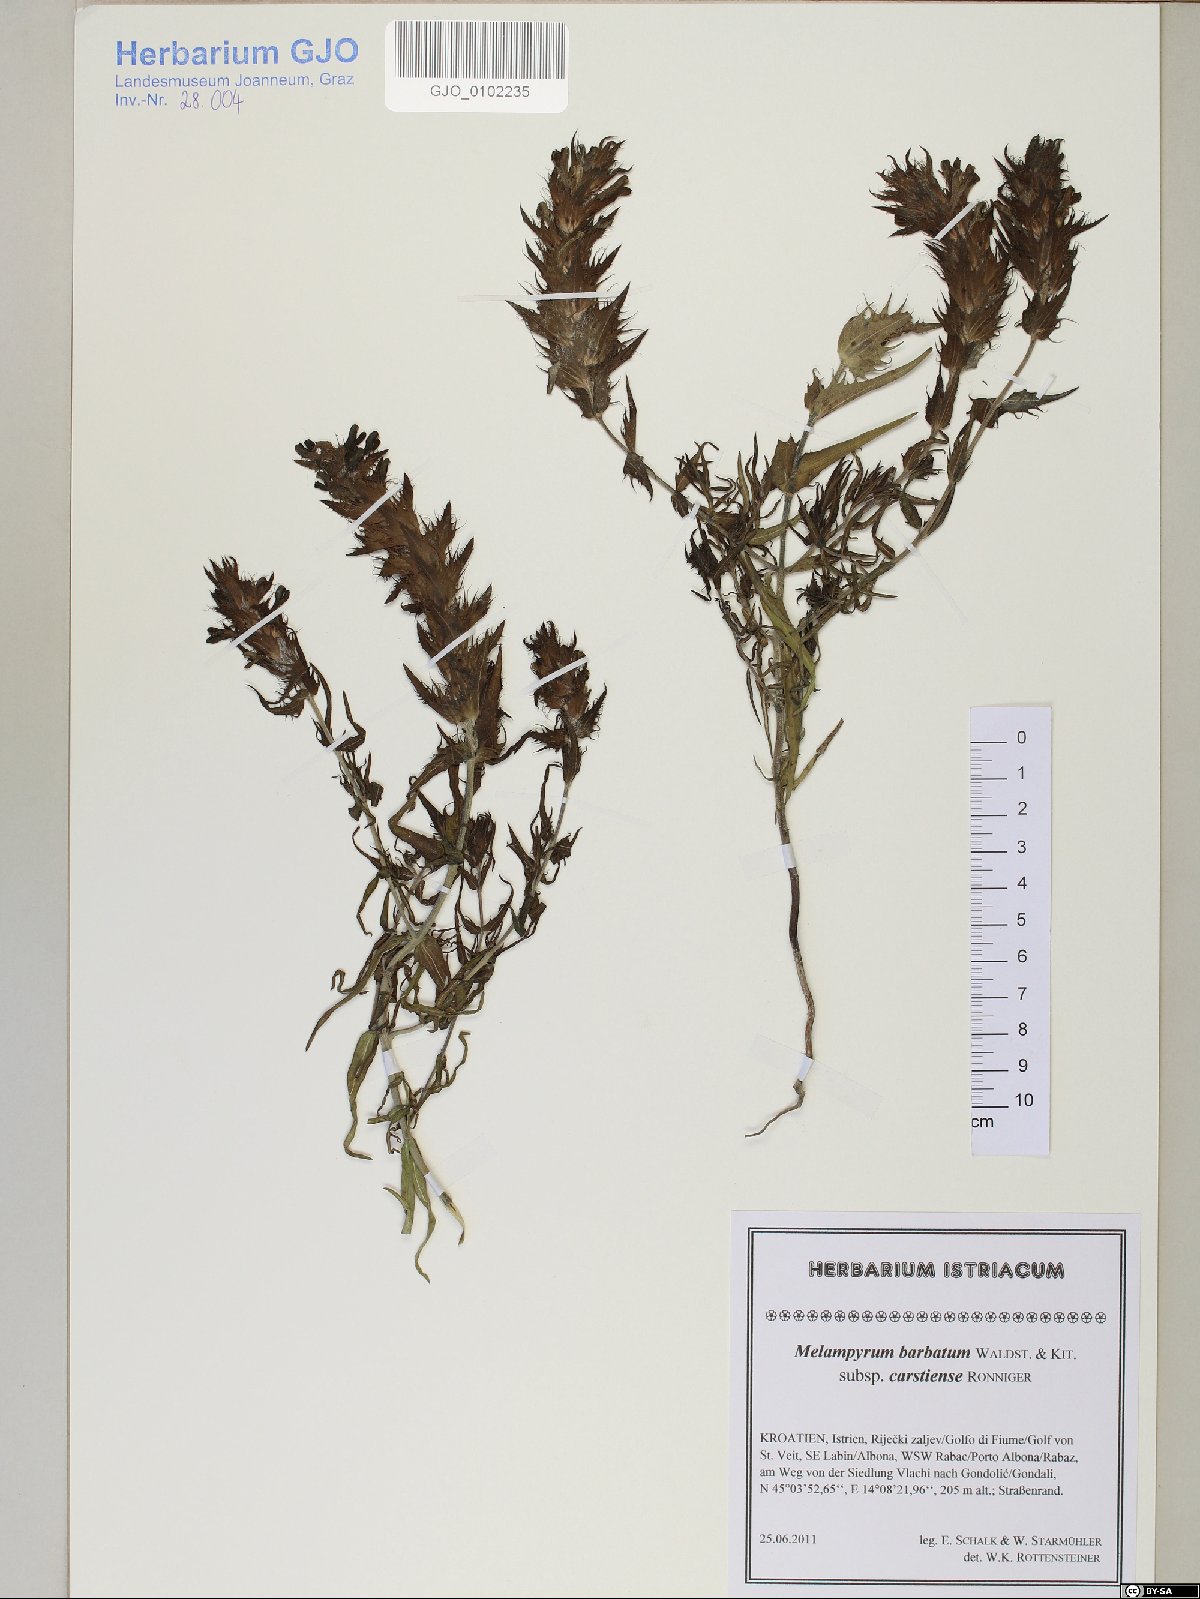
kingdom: Plantae
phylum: Tracheophyta
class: Magnoliopsida
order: Lamiales
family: Orobanchaceae
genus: Melampyrum
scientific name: Melampyrum barbatum
